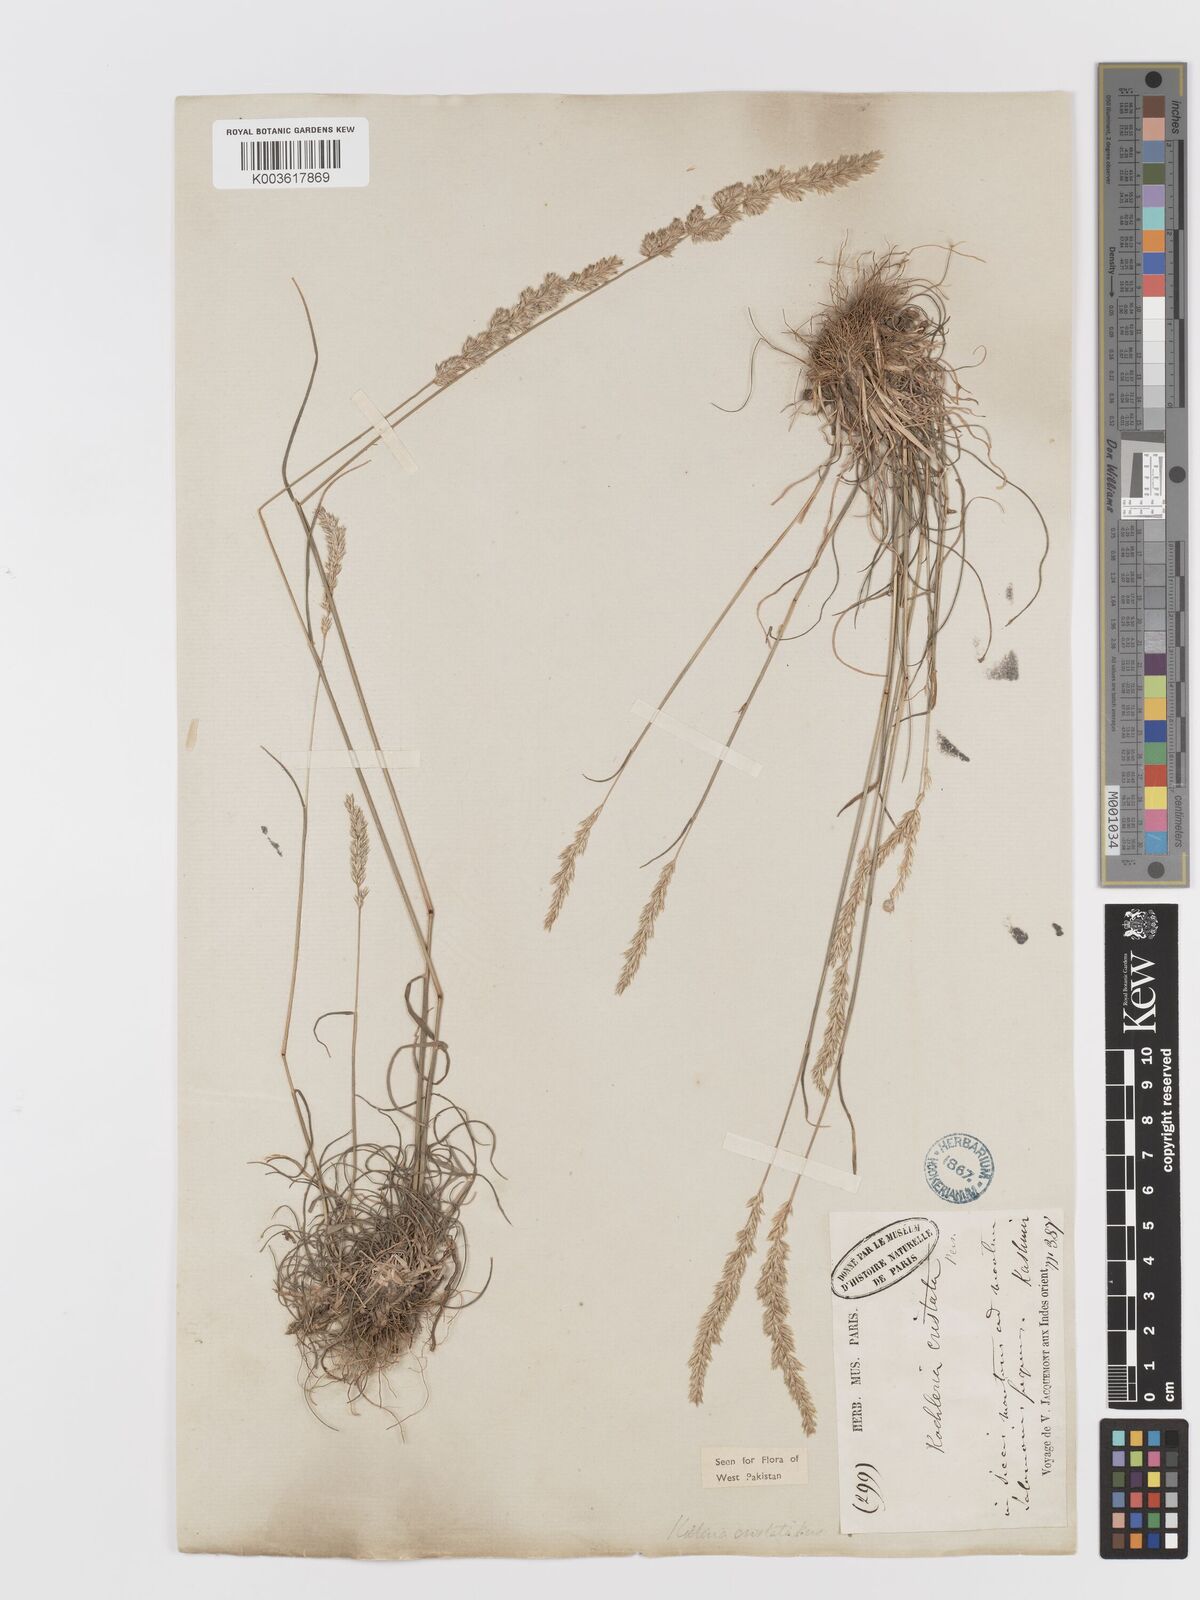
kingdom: Plantae
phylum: Tracheophyta
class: Liliopsida
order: Poales
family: Poaceae
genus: Koeleria
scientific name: Koeleria
